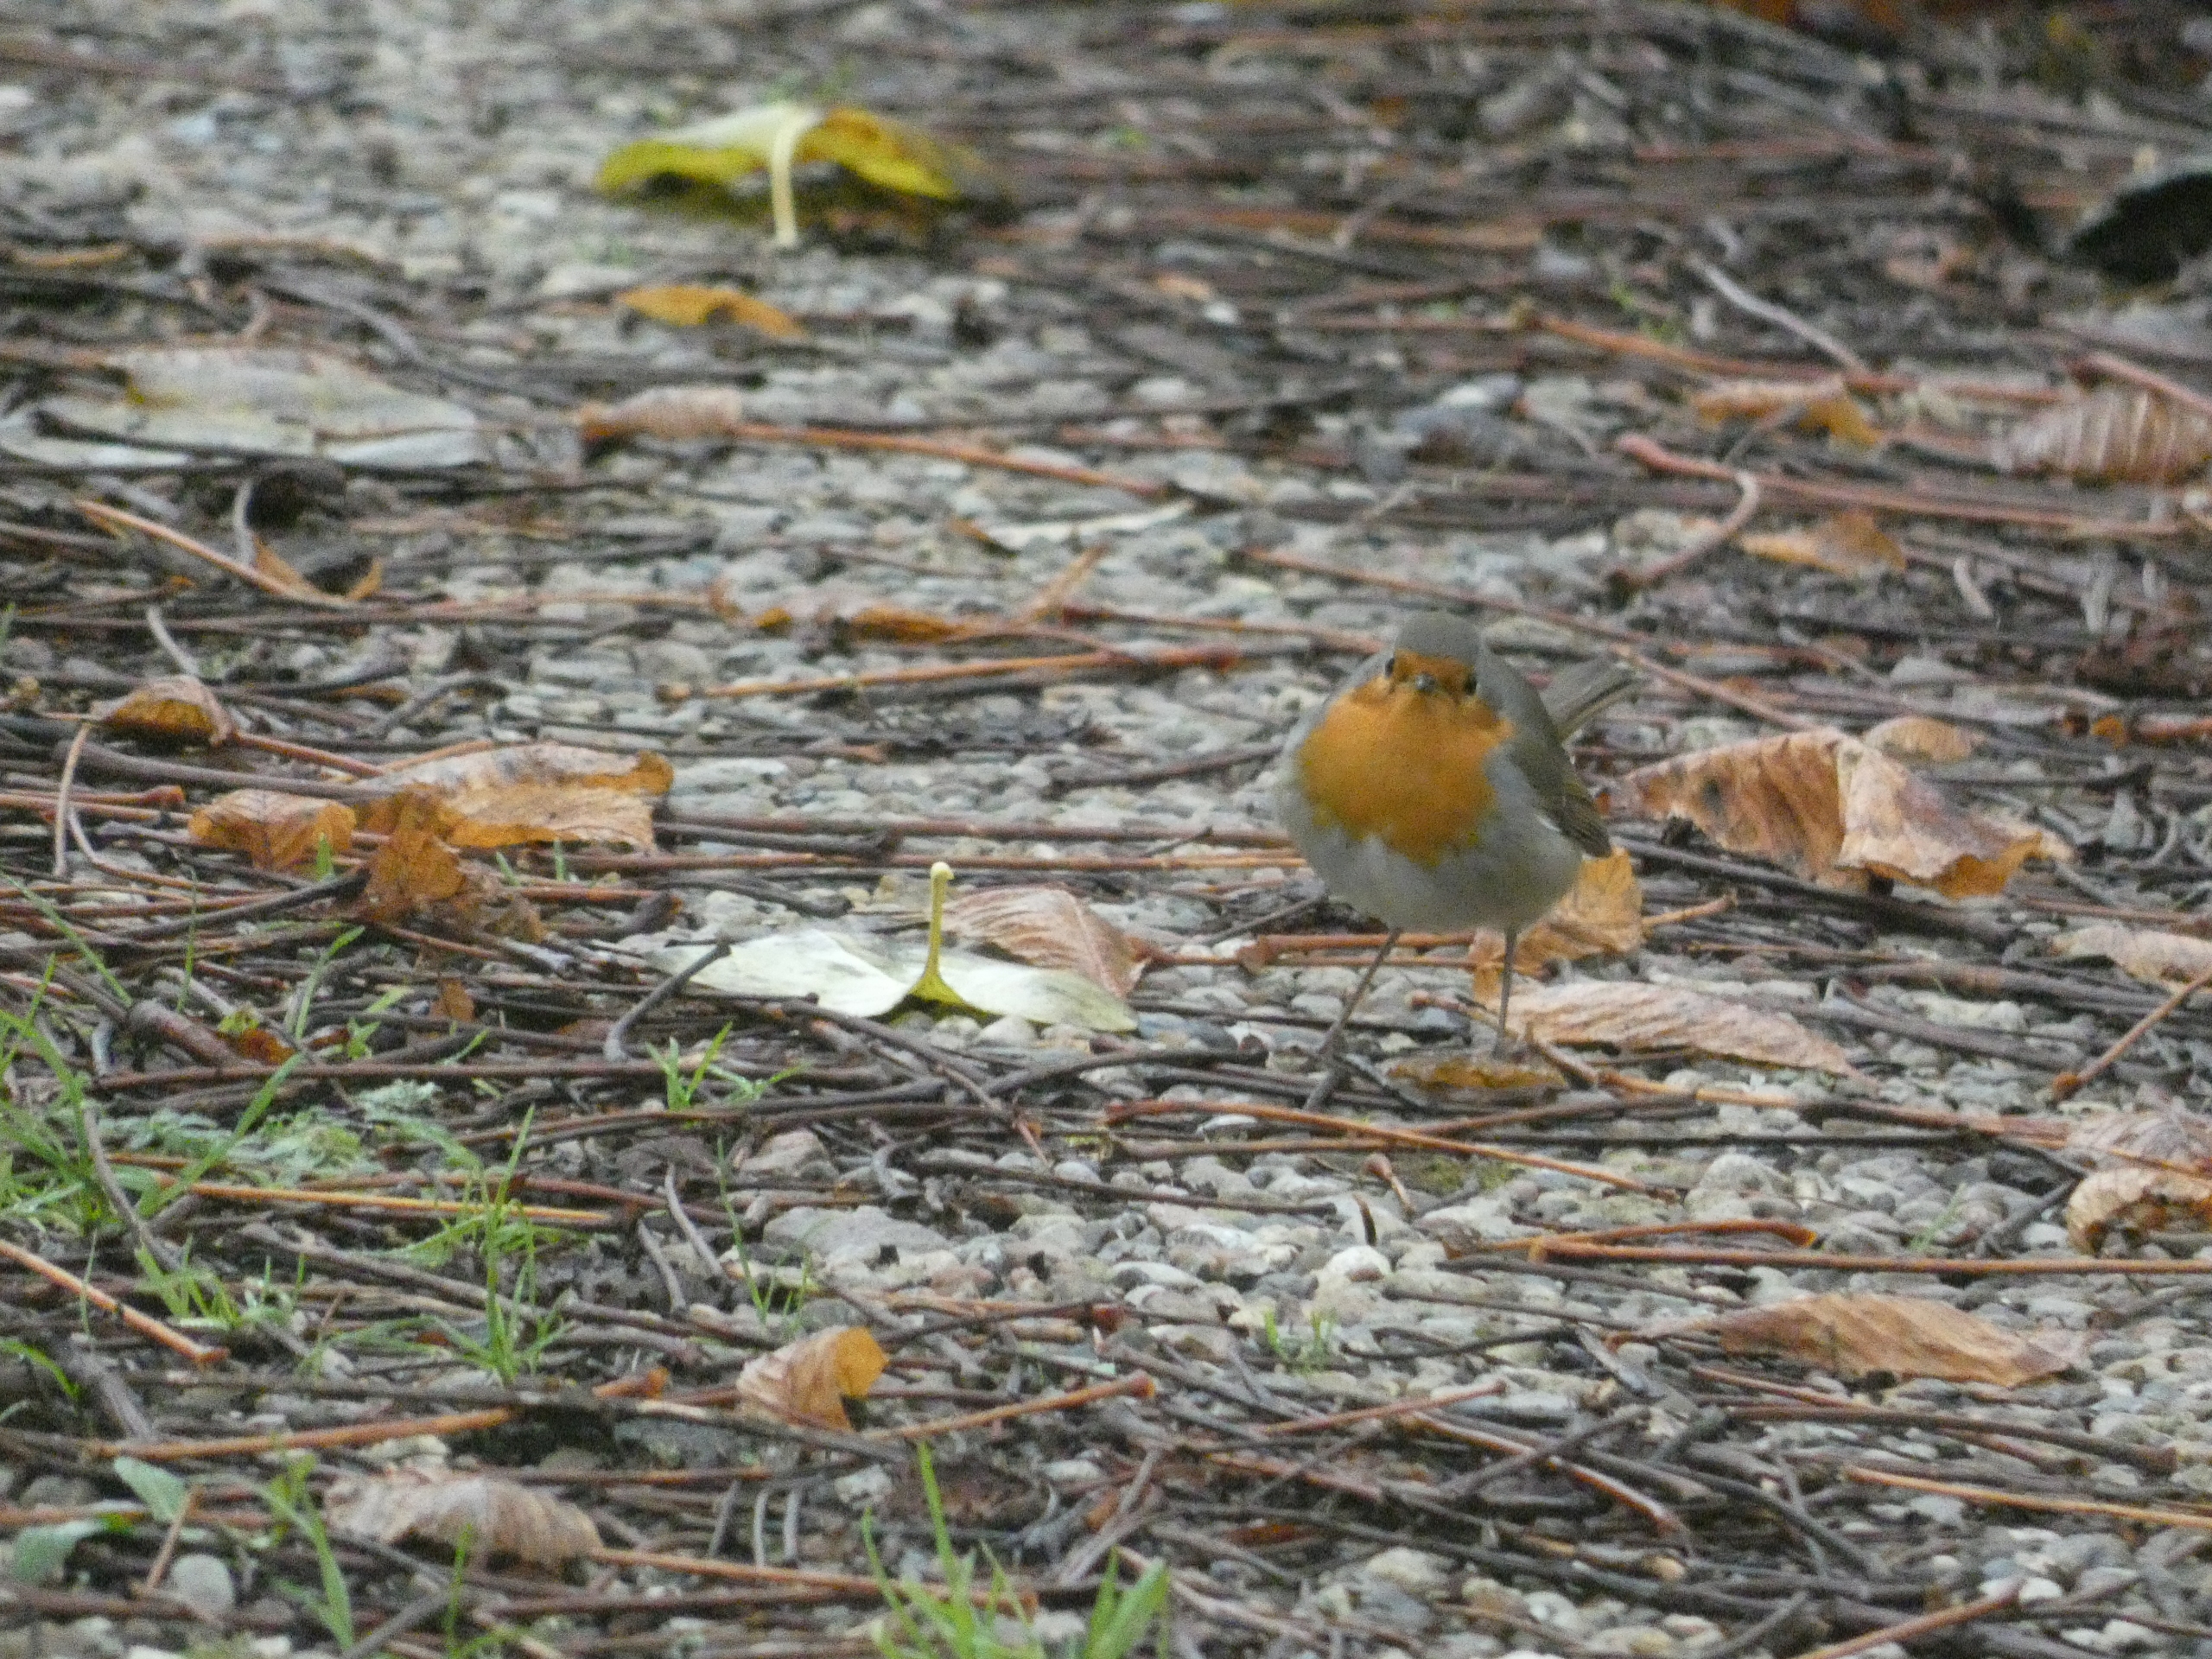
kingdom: Animalia
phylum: Chordata
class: Aves
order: Passeriformes
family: Muscicapidae
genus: Erithacus
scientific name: Erithacus rubecula
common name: Rødhals/rødkælk
